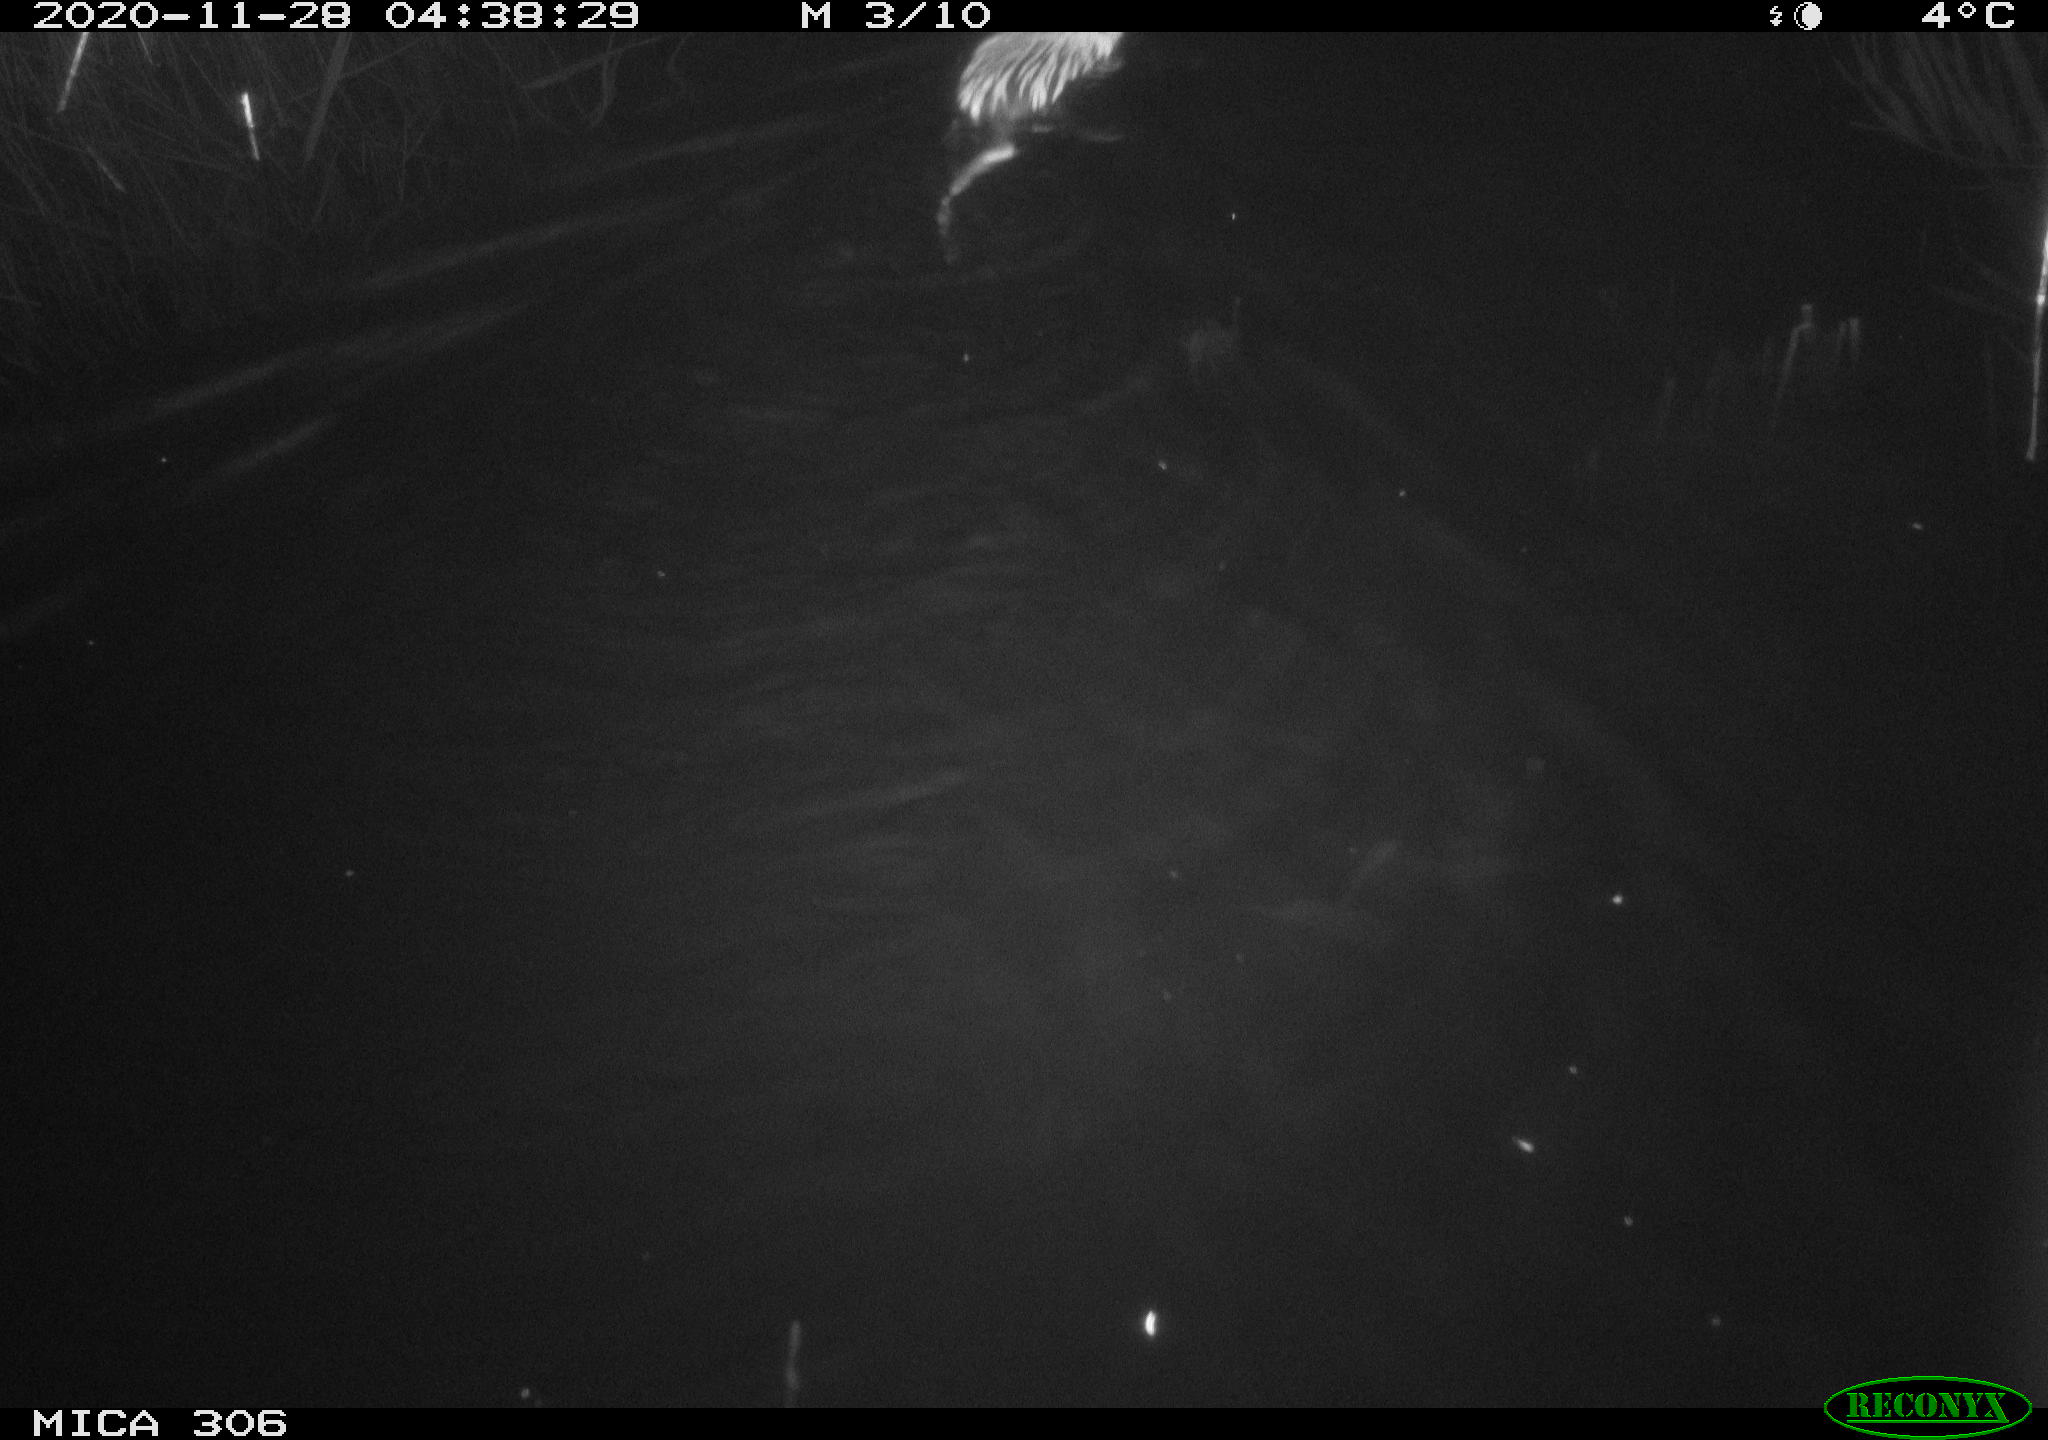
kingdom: Animalia
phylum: Chordata
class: Mammalia
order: Rodentia
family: Cricetidae
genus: Ondatra
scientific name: Ondatra zibethicus
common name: Muskrat
